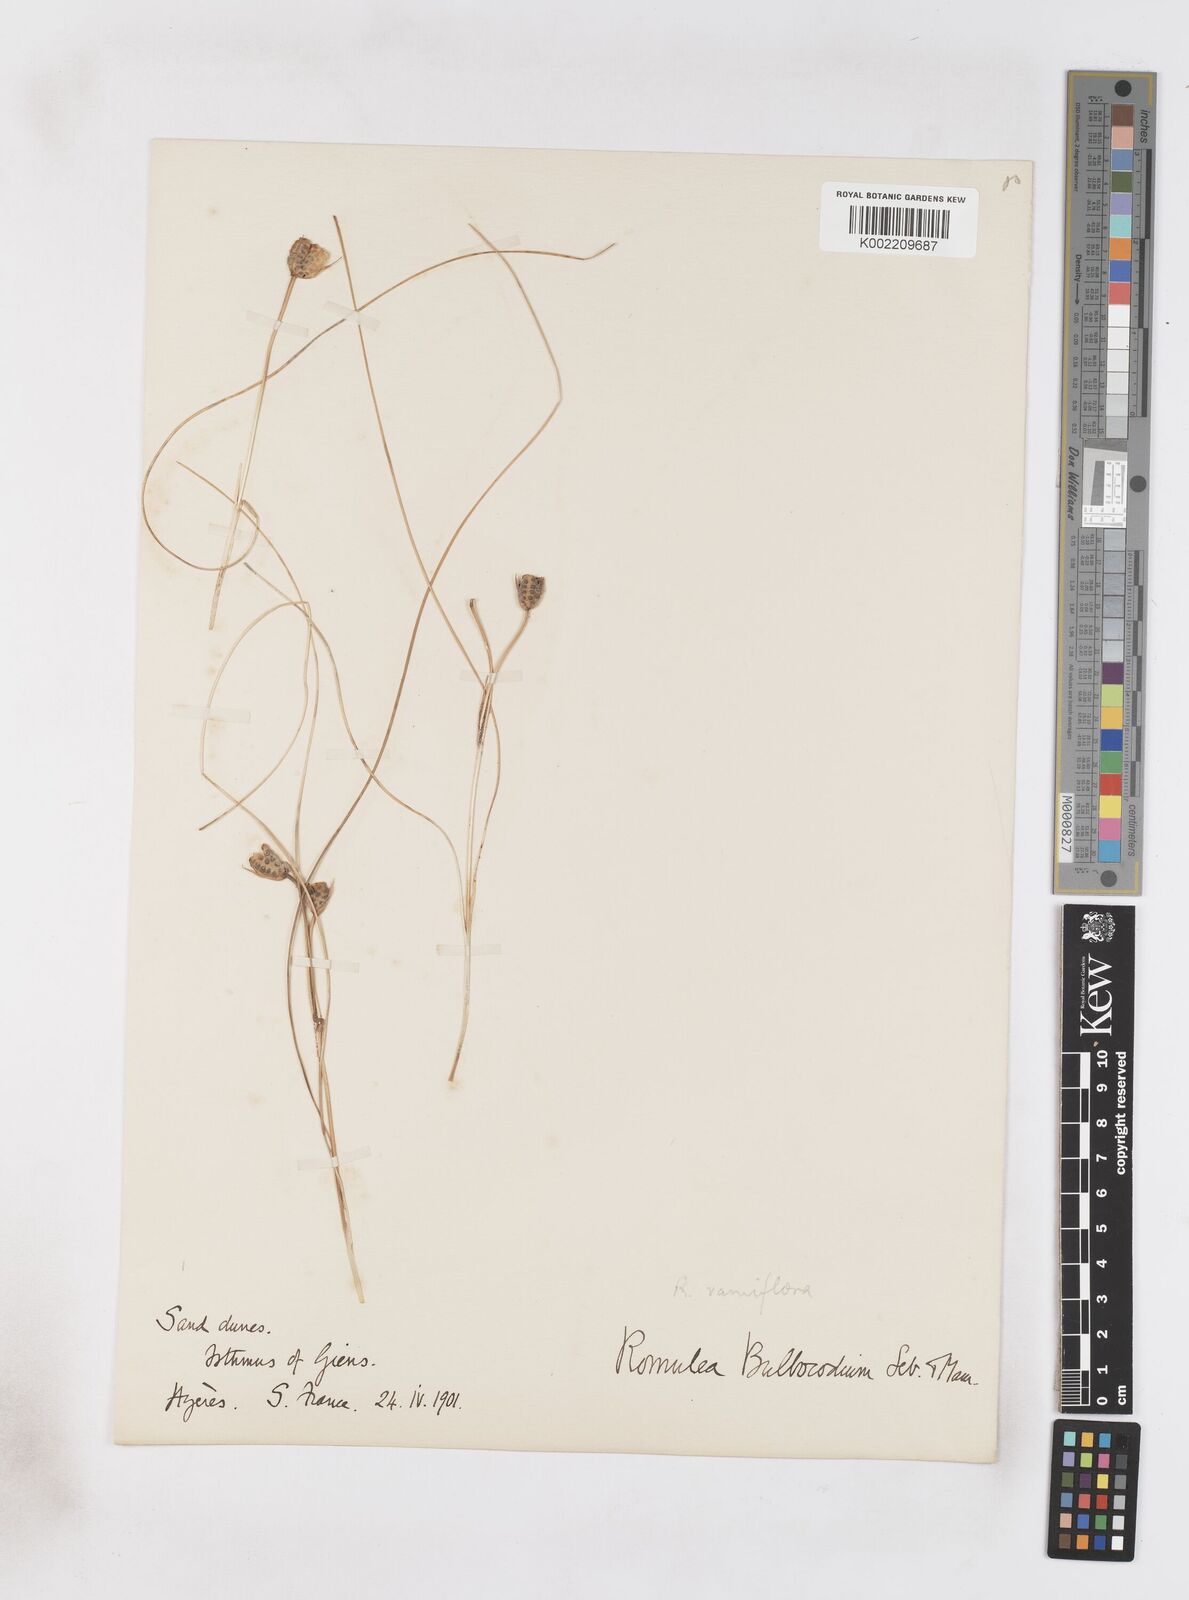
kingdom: Plantae
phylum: Tracheophyta
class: Liliopsida
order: Asparagales
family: Iridaceae
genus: Romulea
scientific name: Romulea ramiflora
